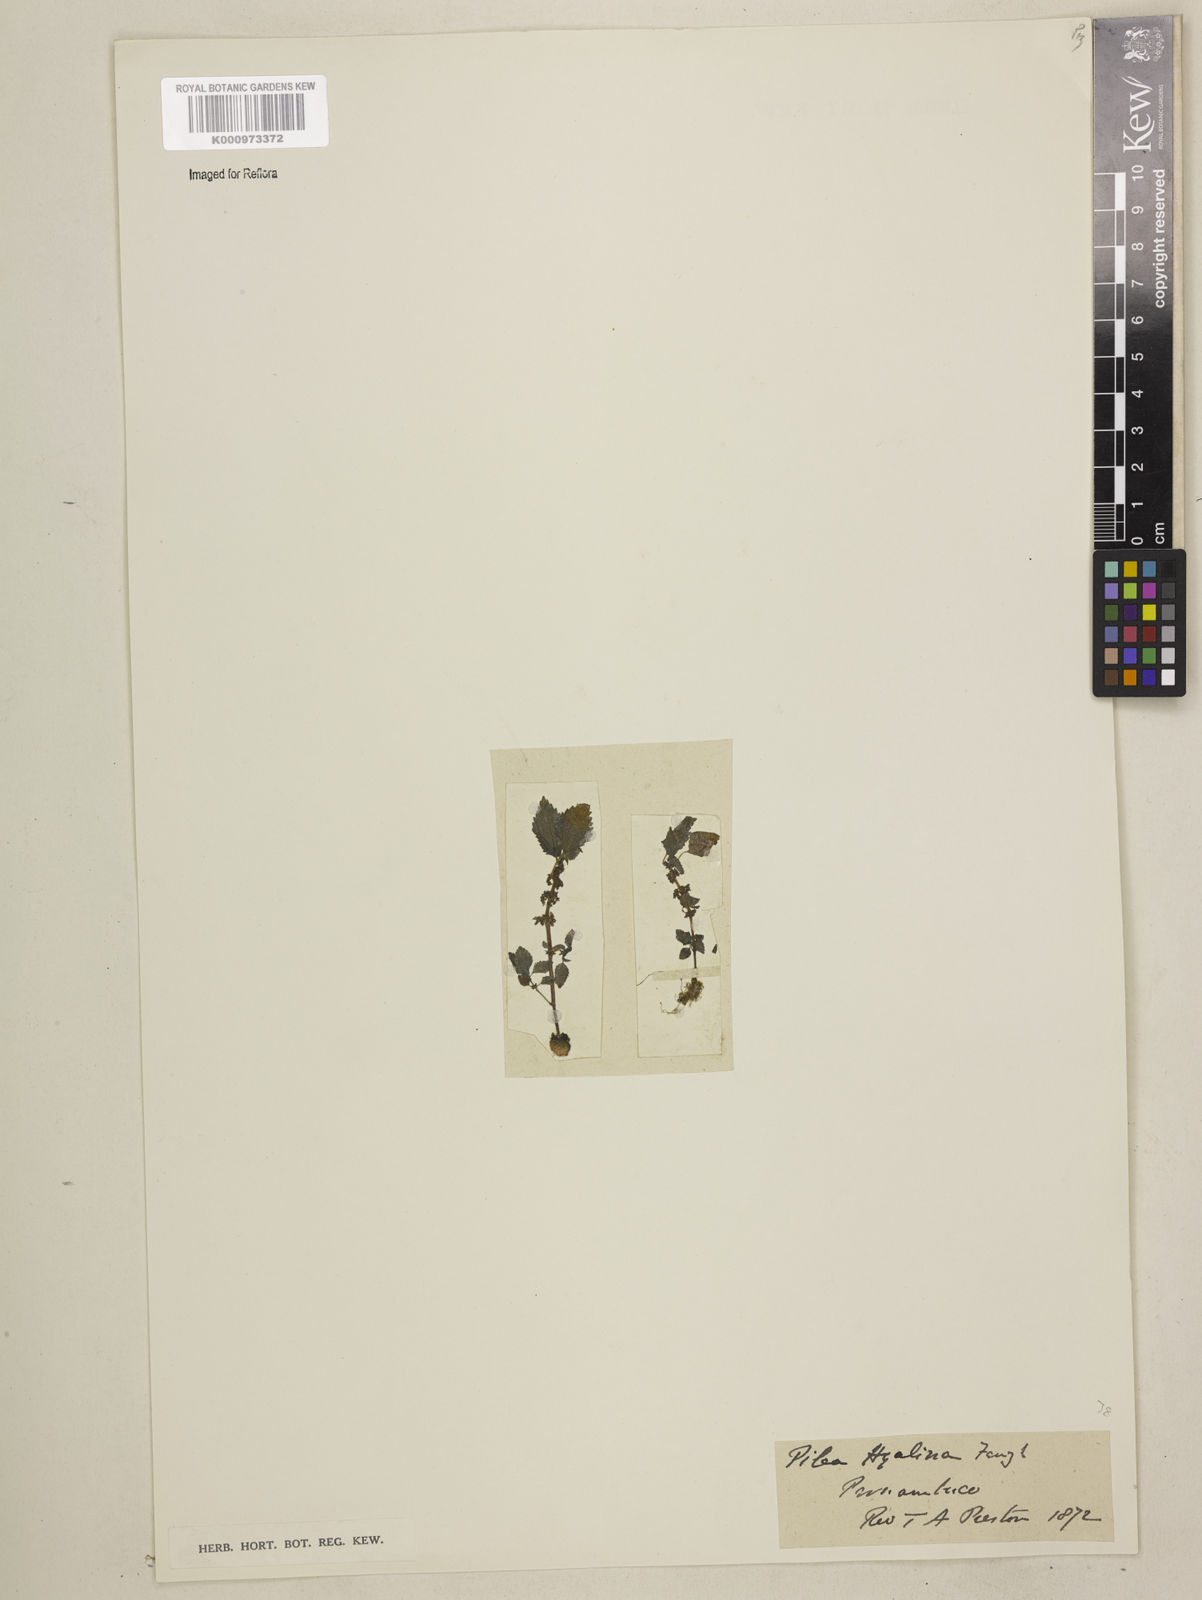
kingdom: Plantae
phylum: Tracheophyta
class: Magnoliopsida
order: Rosales
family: Urticaceae
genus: Pilea
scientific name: Pilea hyalina
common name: Virdrillo
